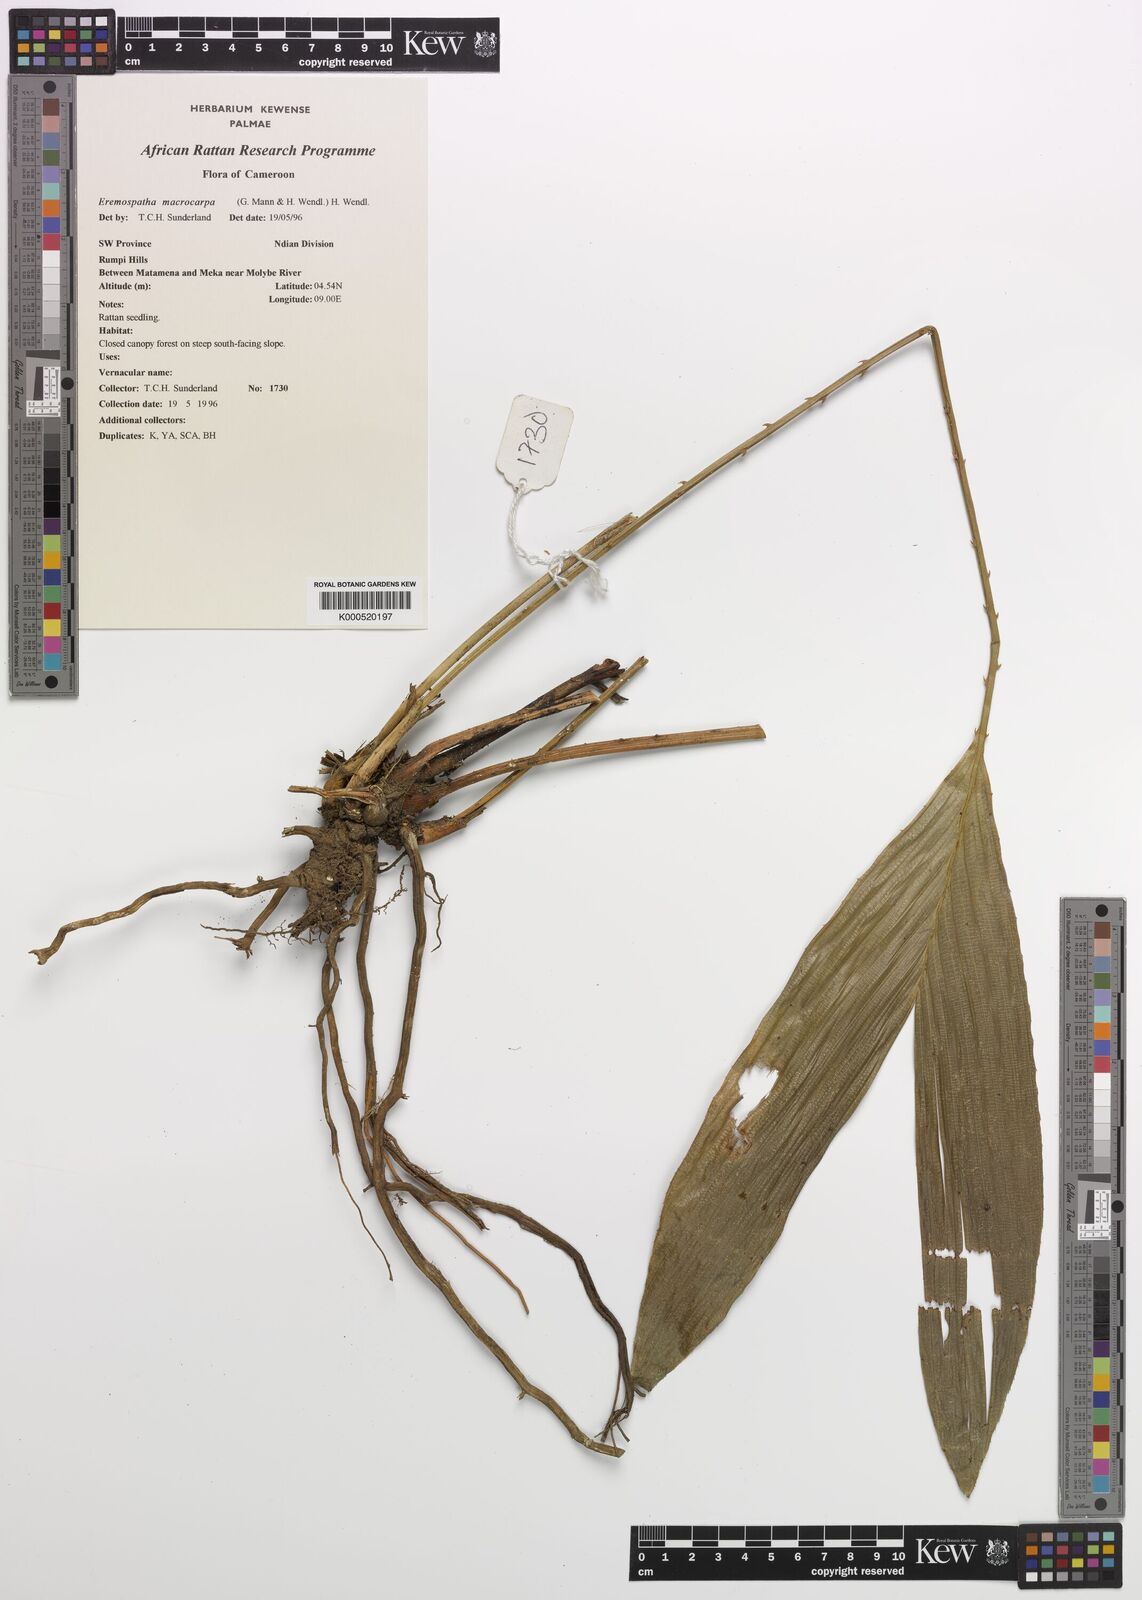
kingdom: Plantae
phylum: Tracheophyta
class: Liliopsida
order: Arecales
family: Arecaceae
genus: Eremospatha
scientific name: Eremospatha
